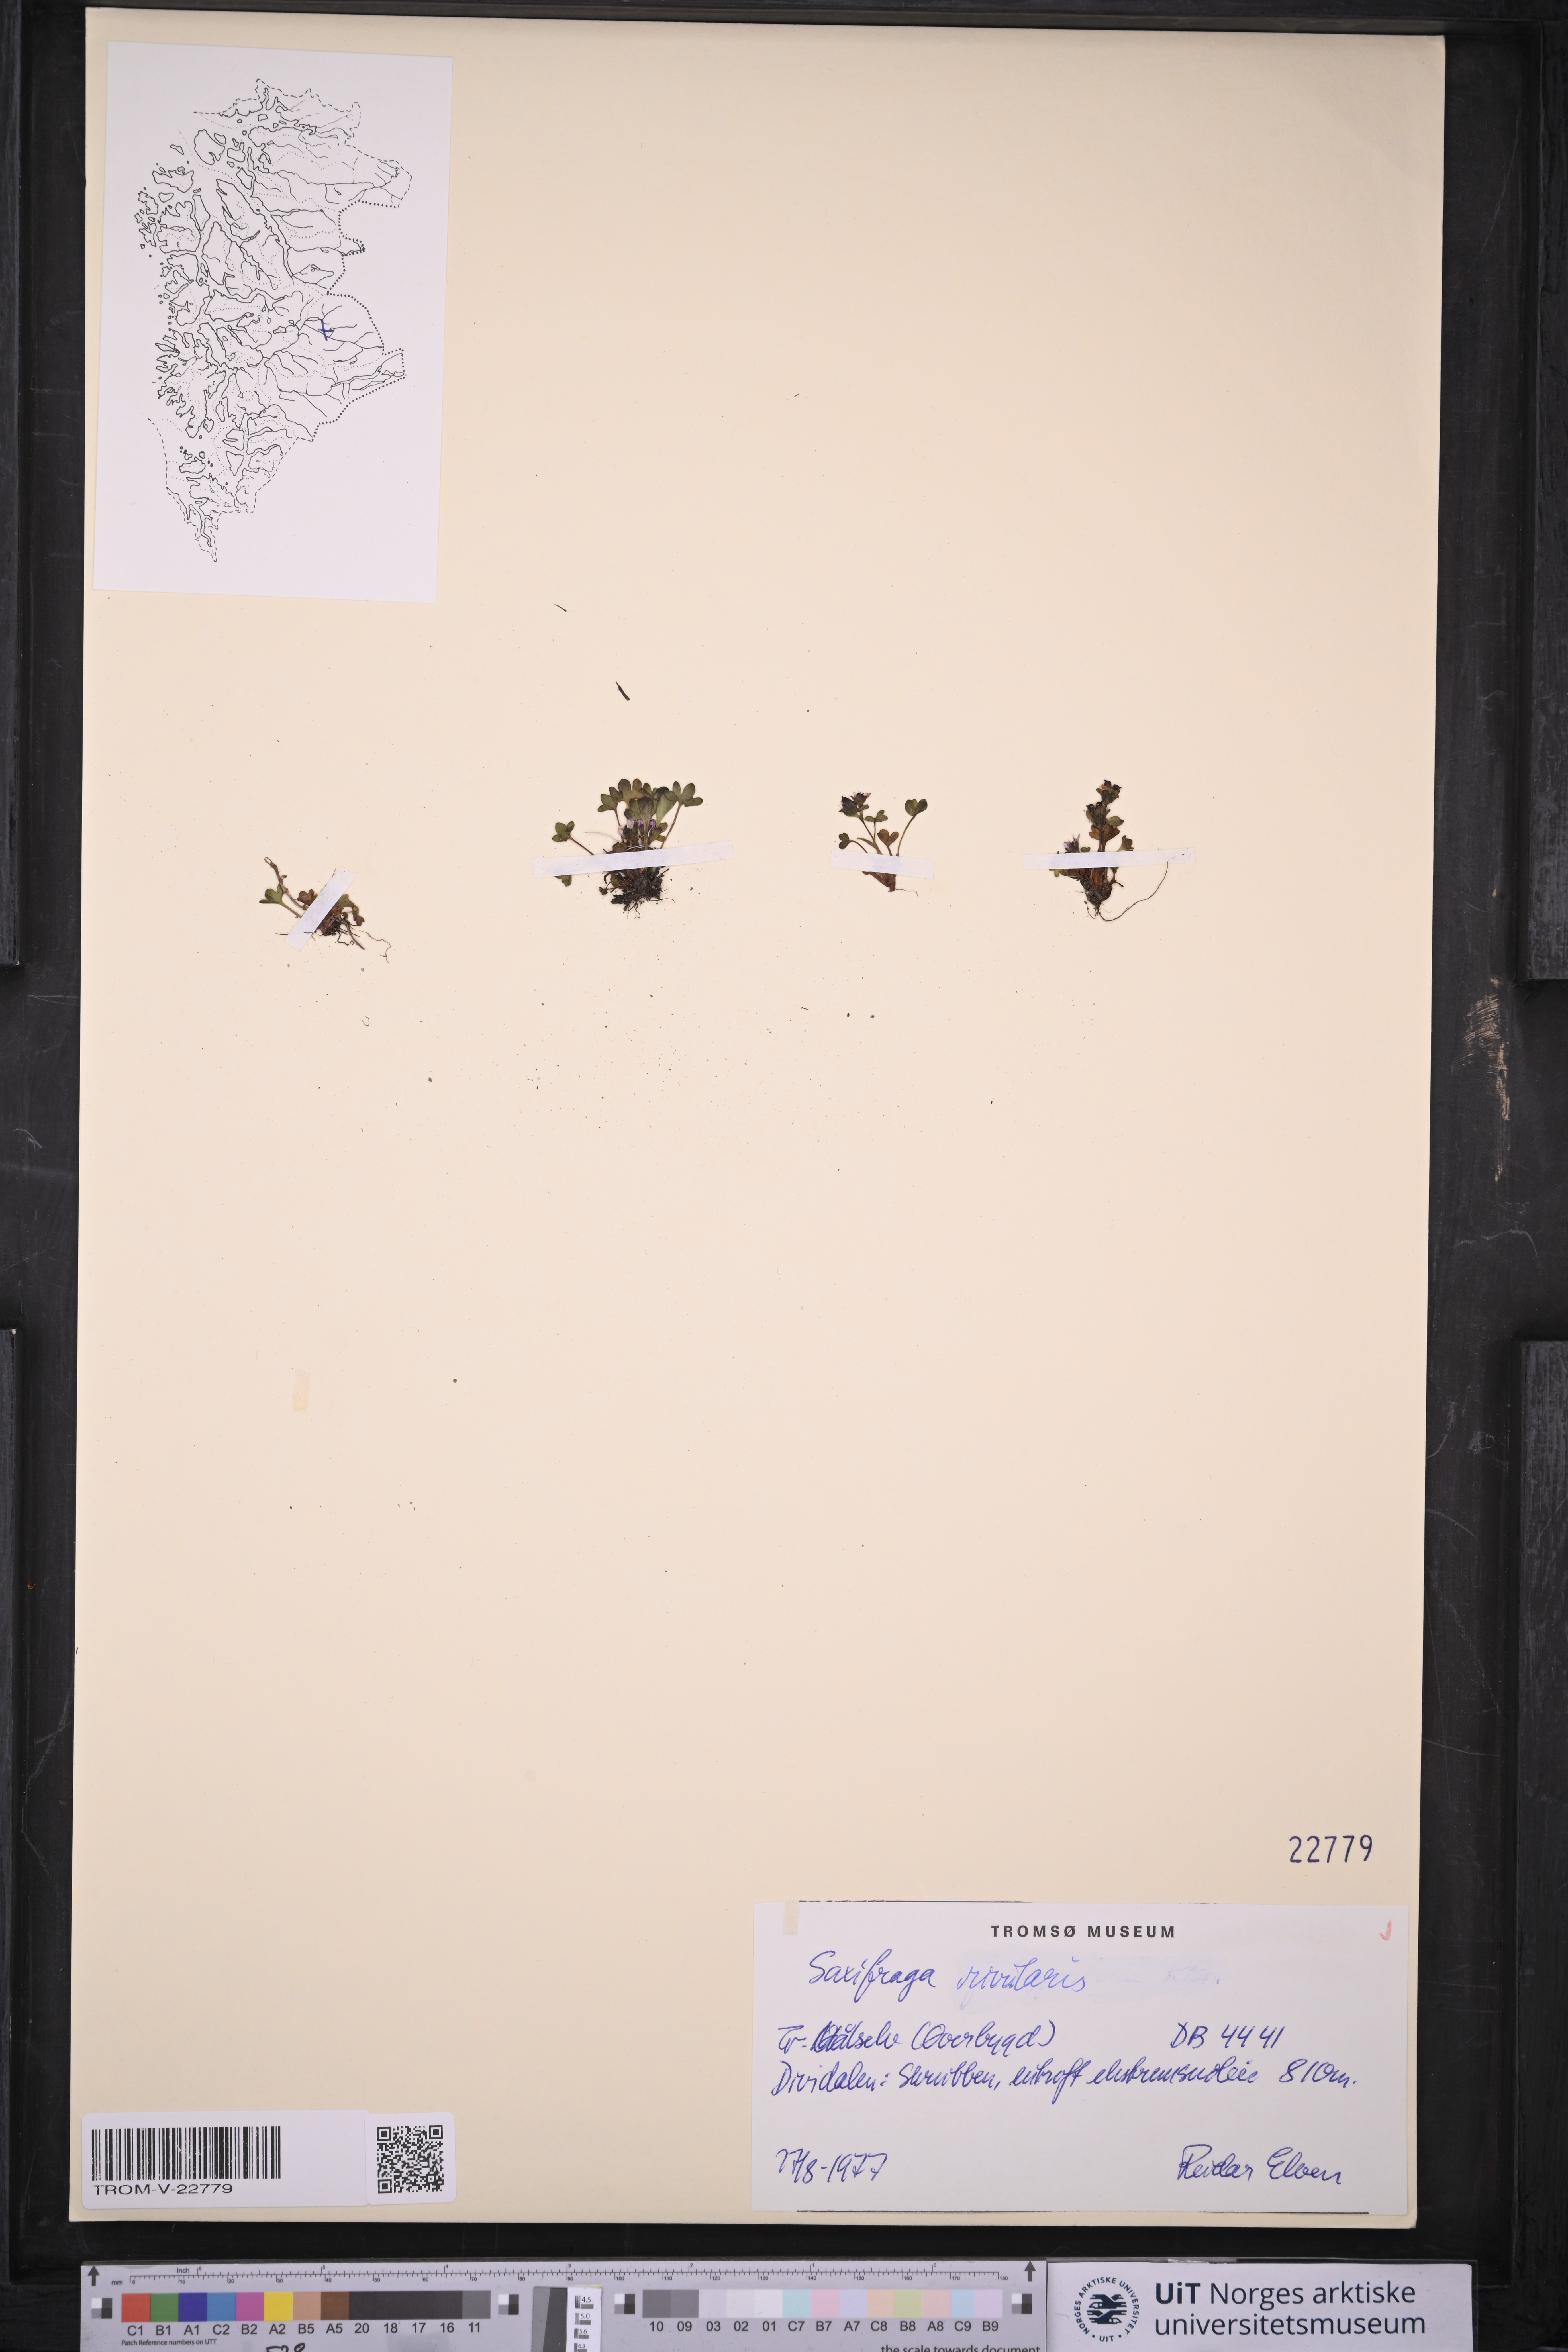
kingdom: Plantae
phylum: Tracheophyta
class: Magnoliopsida
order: Saxifragales
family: Saxifragaceae
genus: Saxifraga
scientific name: Saxifraga rivularis
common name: Highland saxifrage
